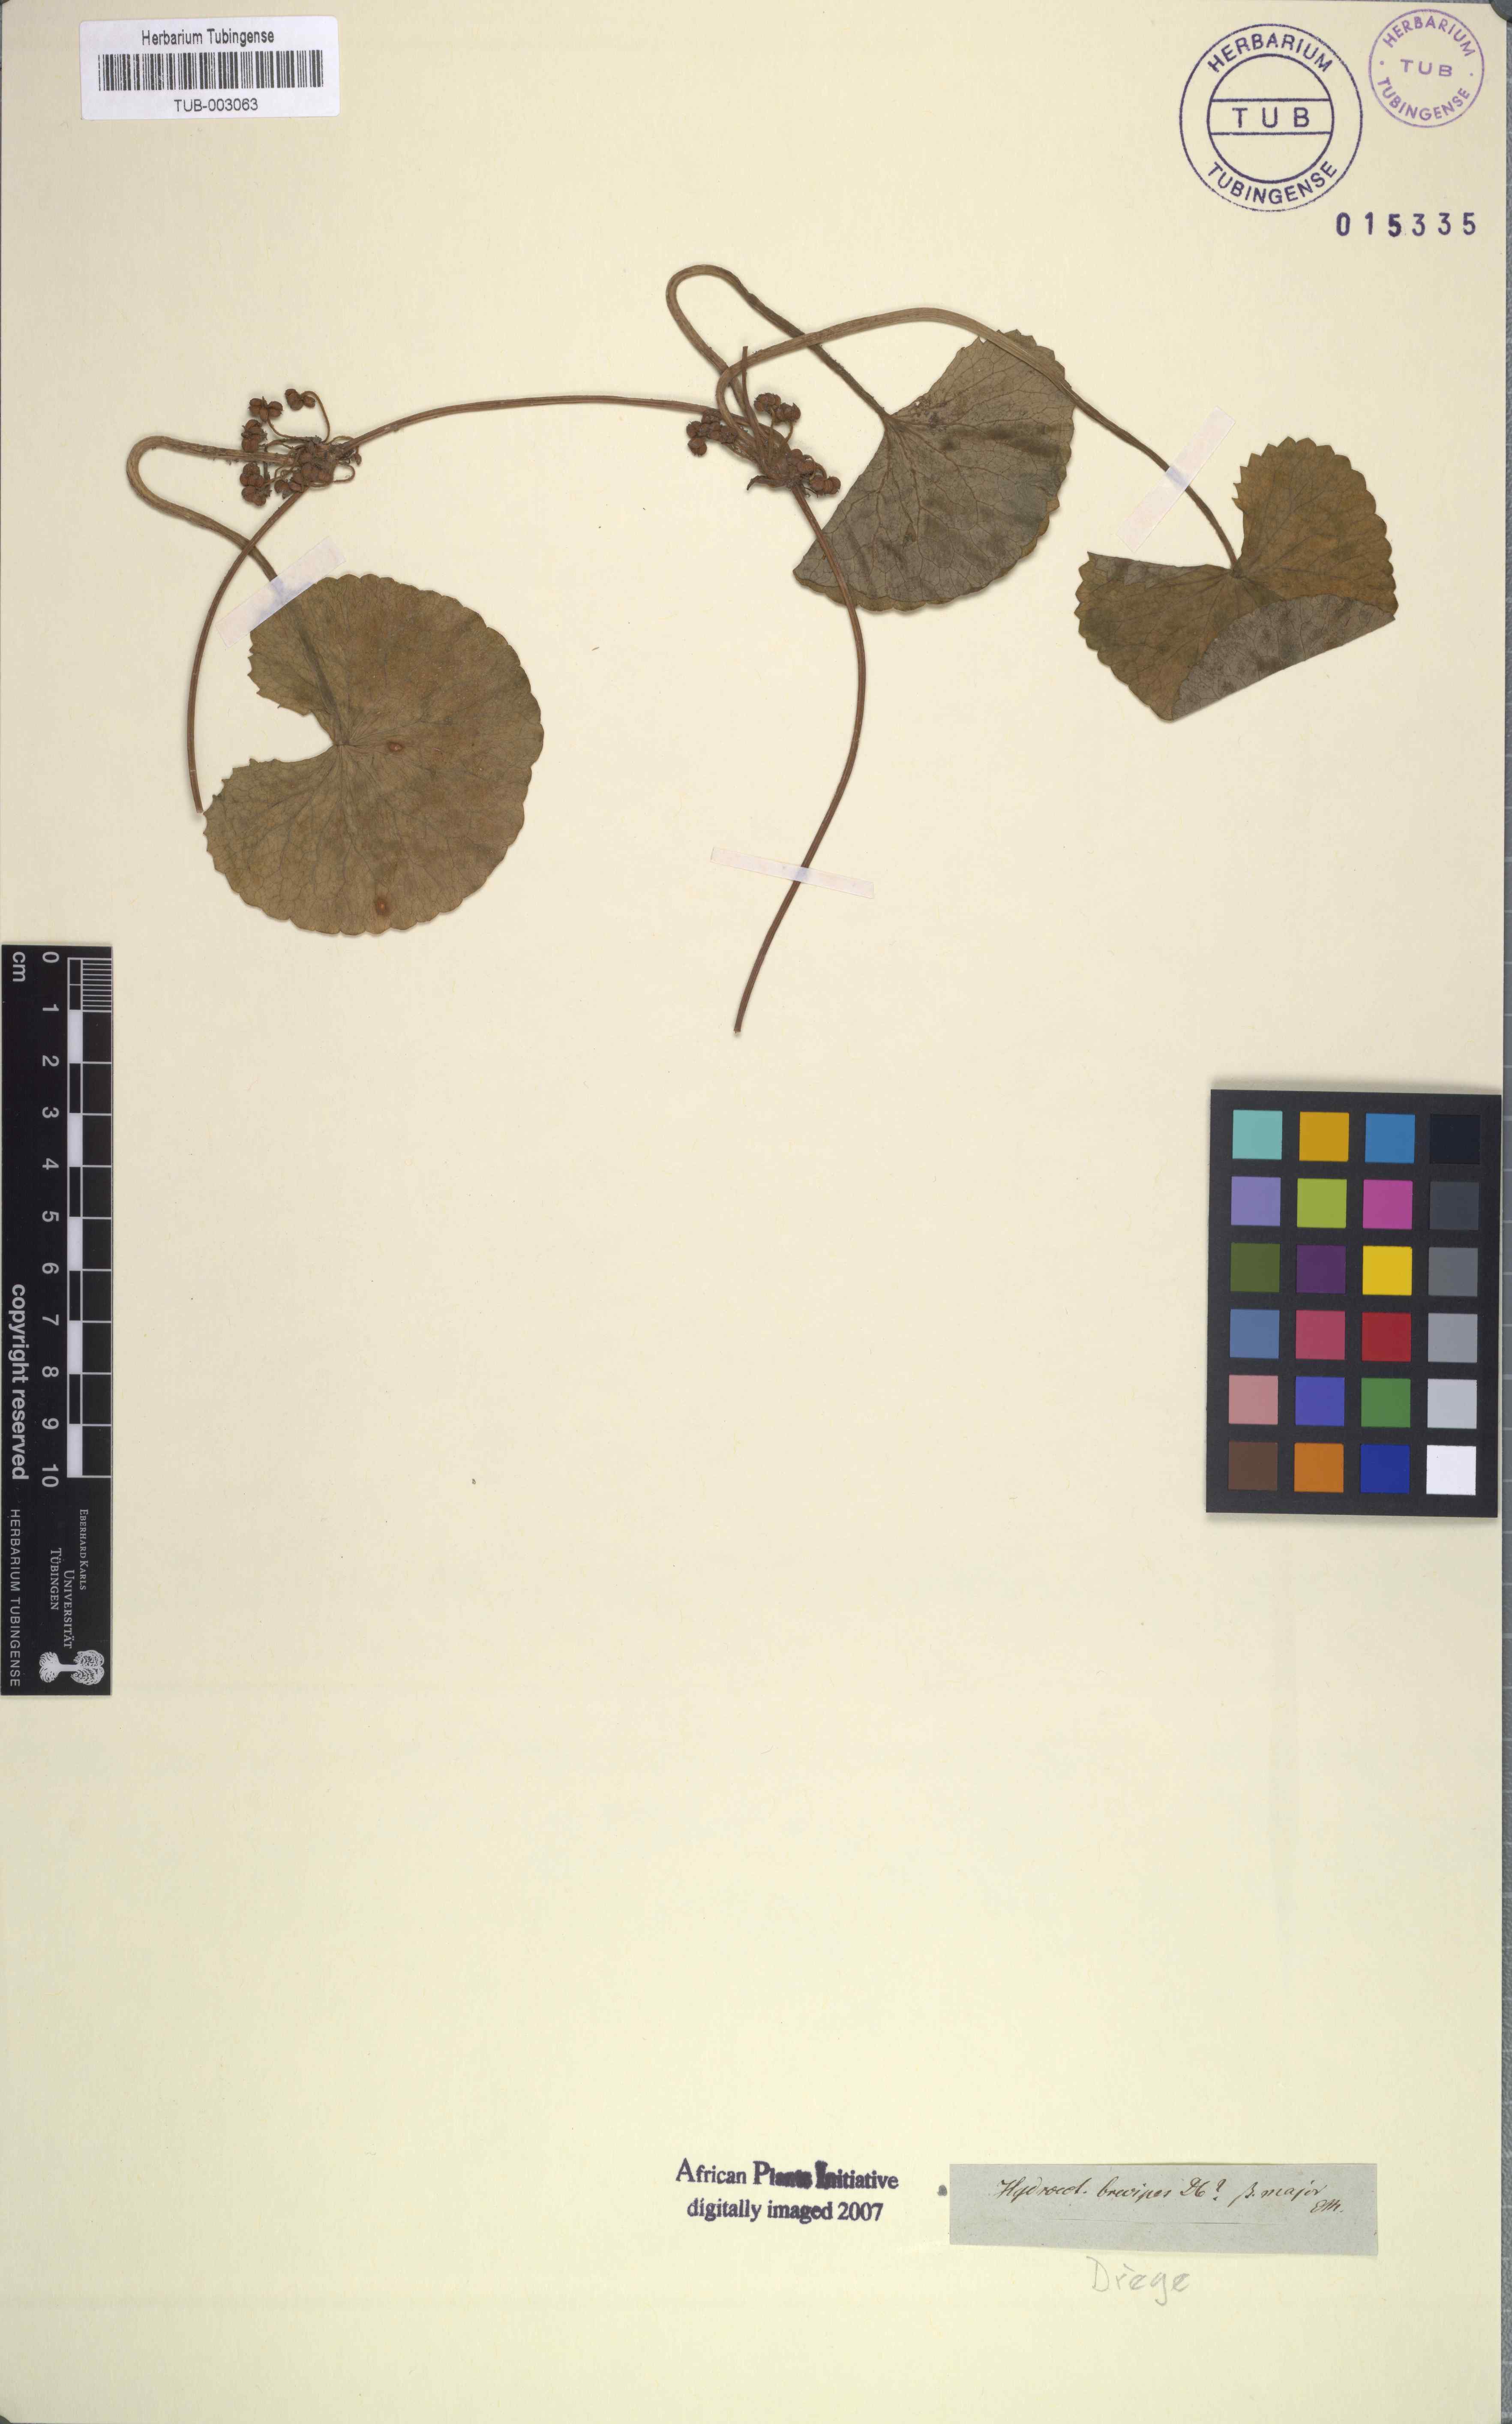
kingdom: Plantae
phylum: Tracheophyta
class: Magnoliopsida
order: Apiales
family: Apiaceae
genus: Centella
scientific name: Centella asiatica
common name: Spadeleaf
